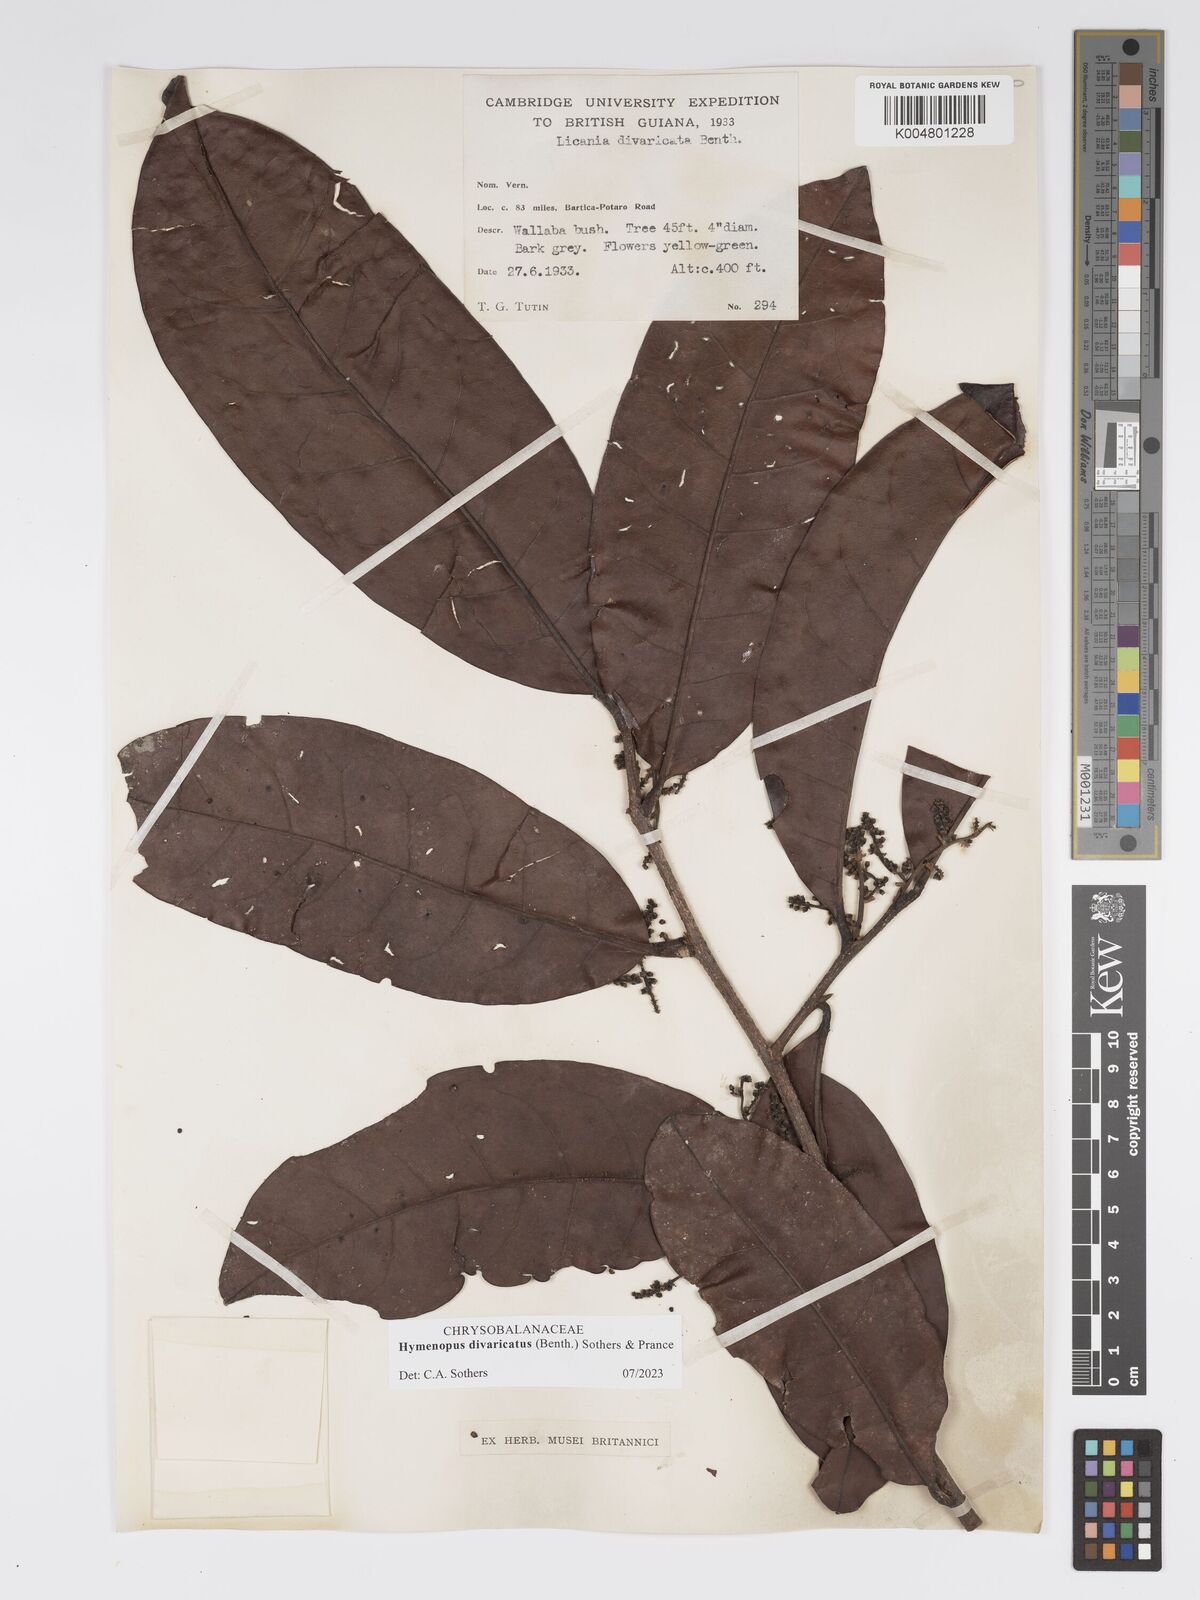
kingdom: Plantae
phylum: Tracheophyta
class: Magnoliopsida
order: Malpighiales
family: Chrysobalanaceae
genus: Hymenopus
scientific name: Hymenopus divaricatus
